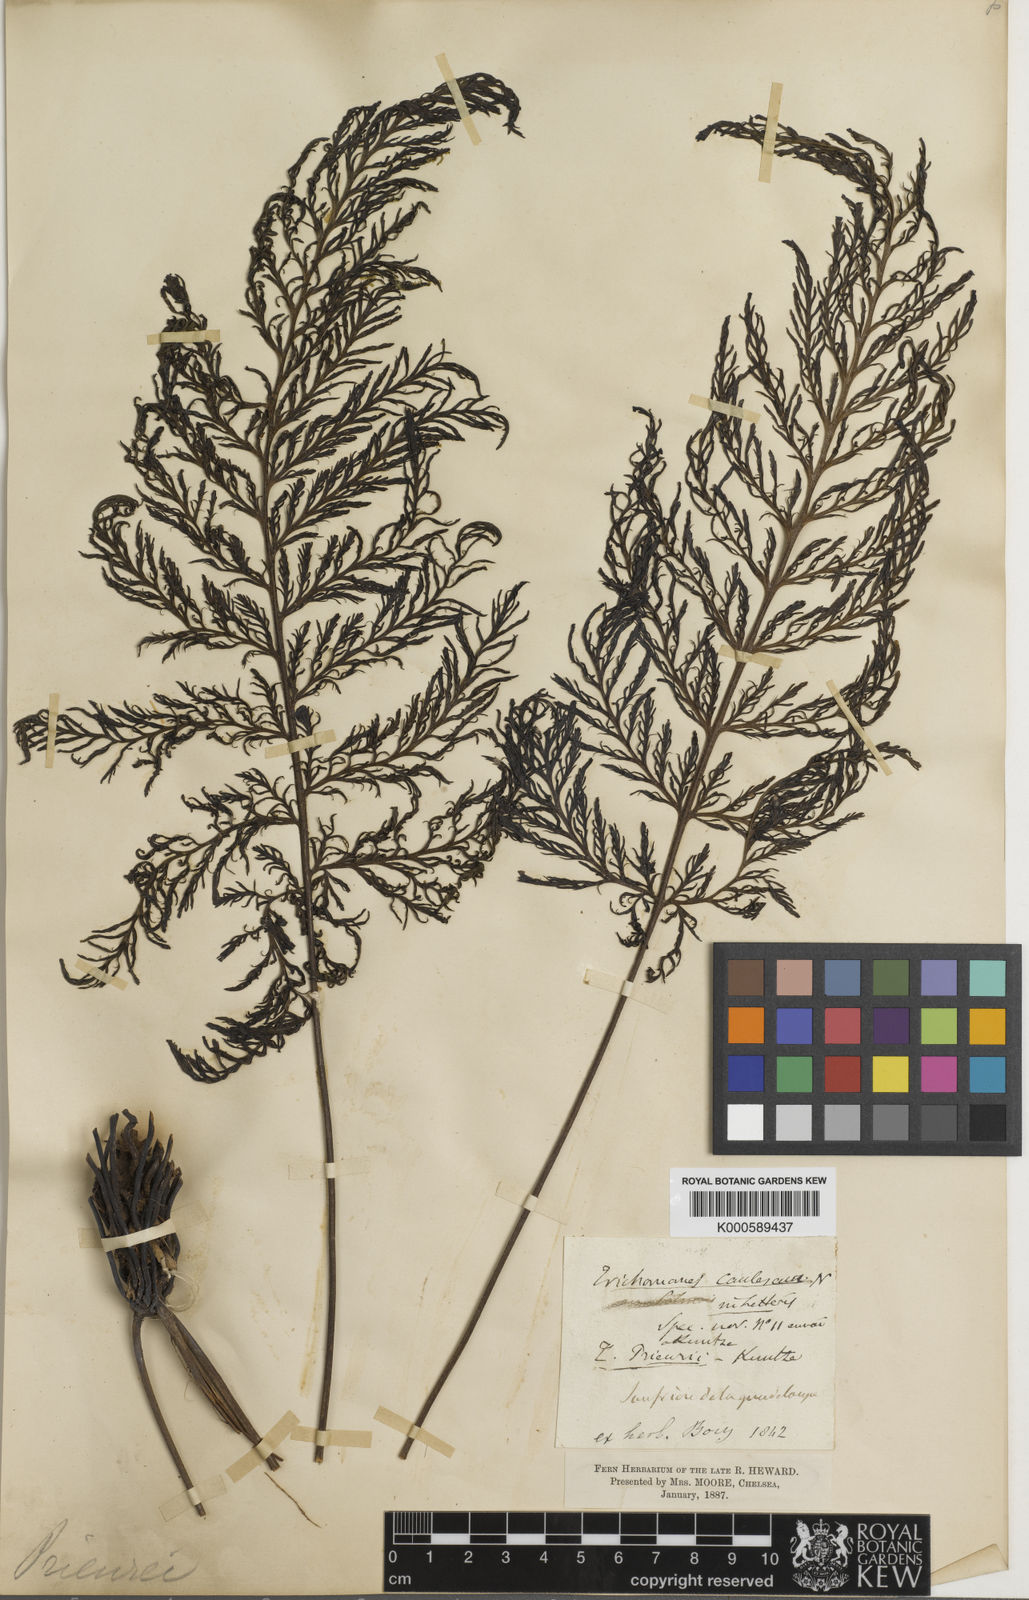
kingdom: Plantae
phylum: Tracheophyta
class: Polypodiopsida
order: Hymenophyllales
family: Hymenophyllaceae
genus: Trichomanes
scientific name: Trichomanes elegans
